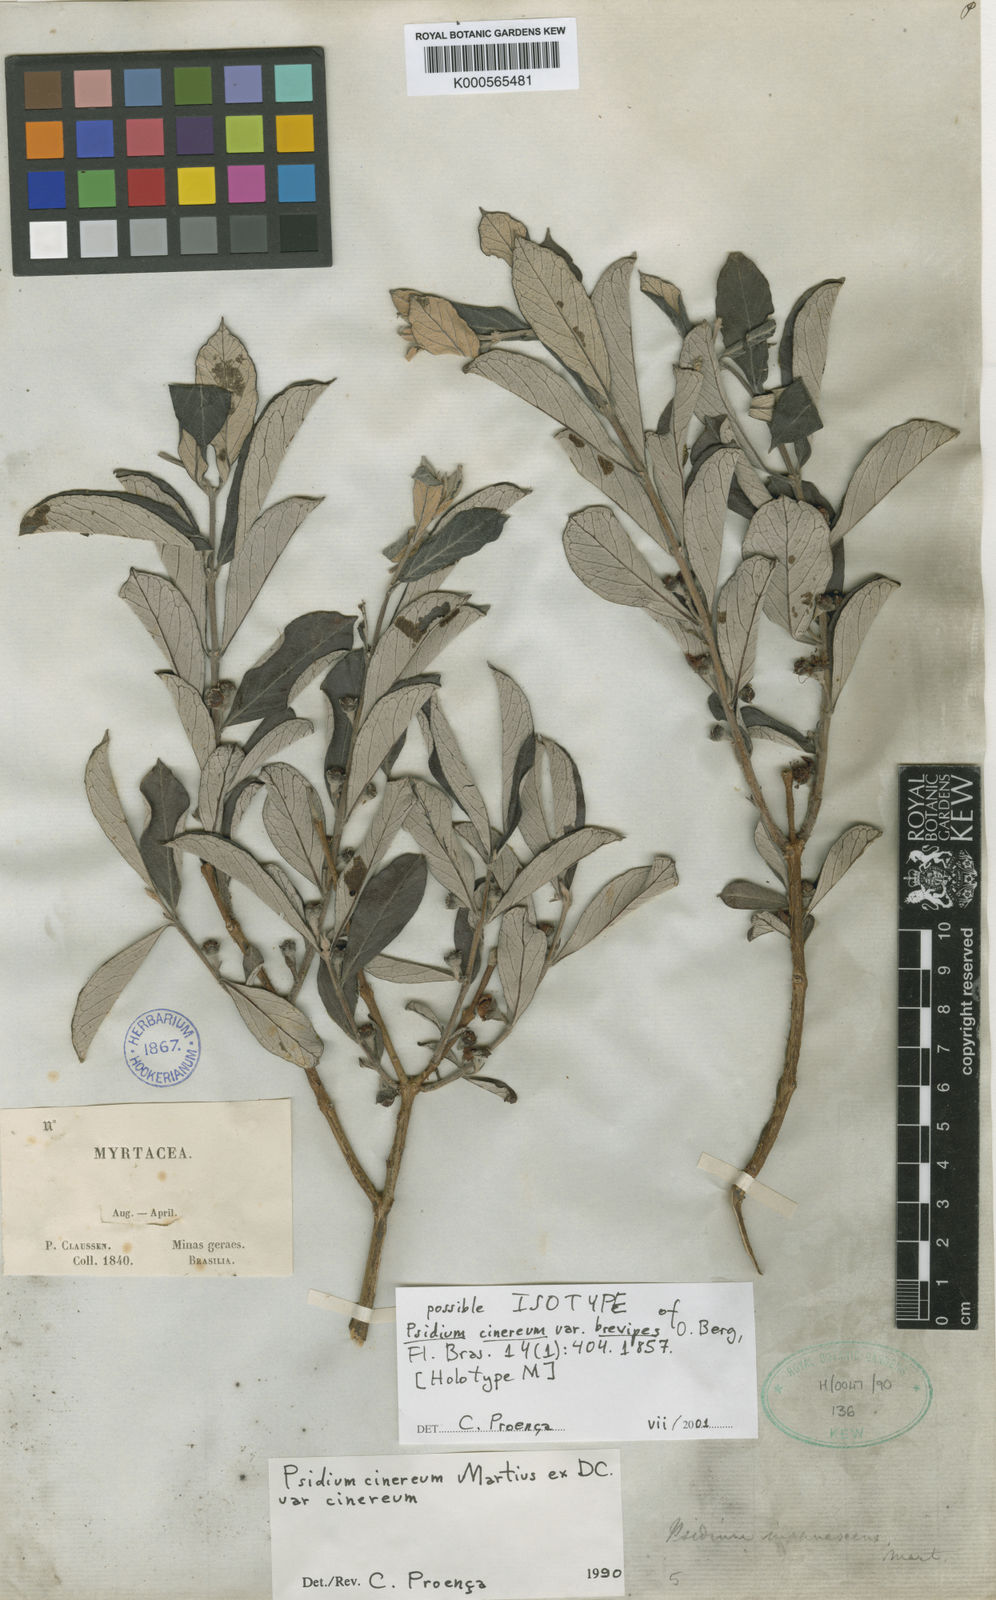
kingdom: Plantae
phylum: Tracheophyta
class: Magnoliopsida
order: Myrtales
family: Myrtaceae
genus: Psidium
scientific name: Psidium grandifolium
